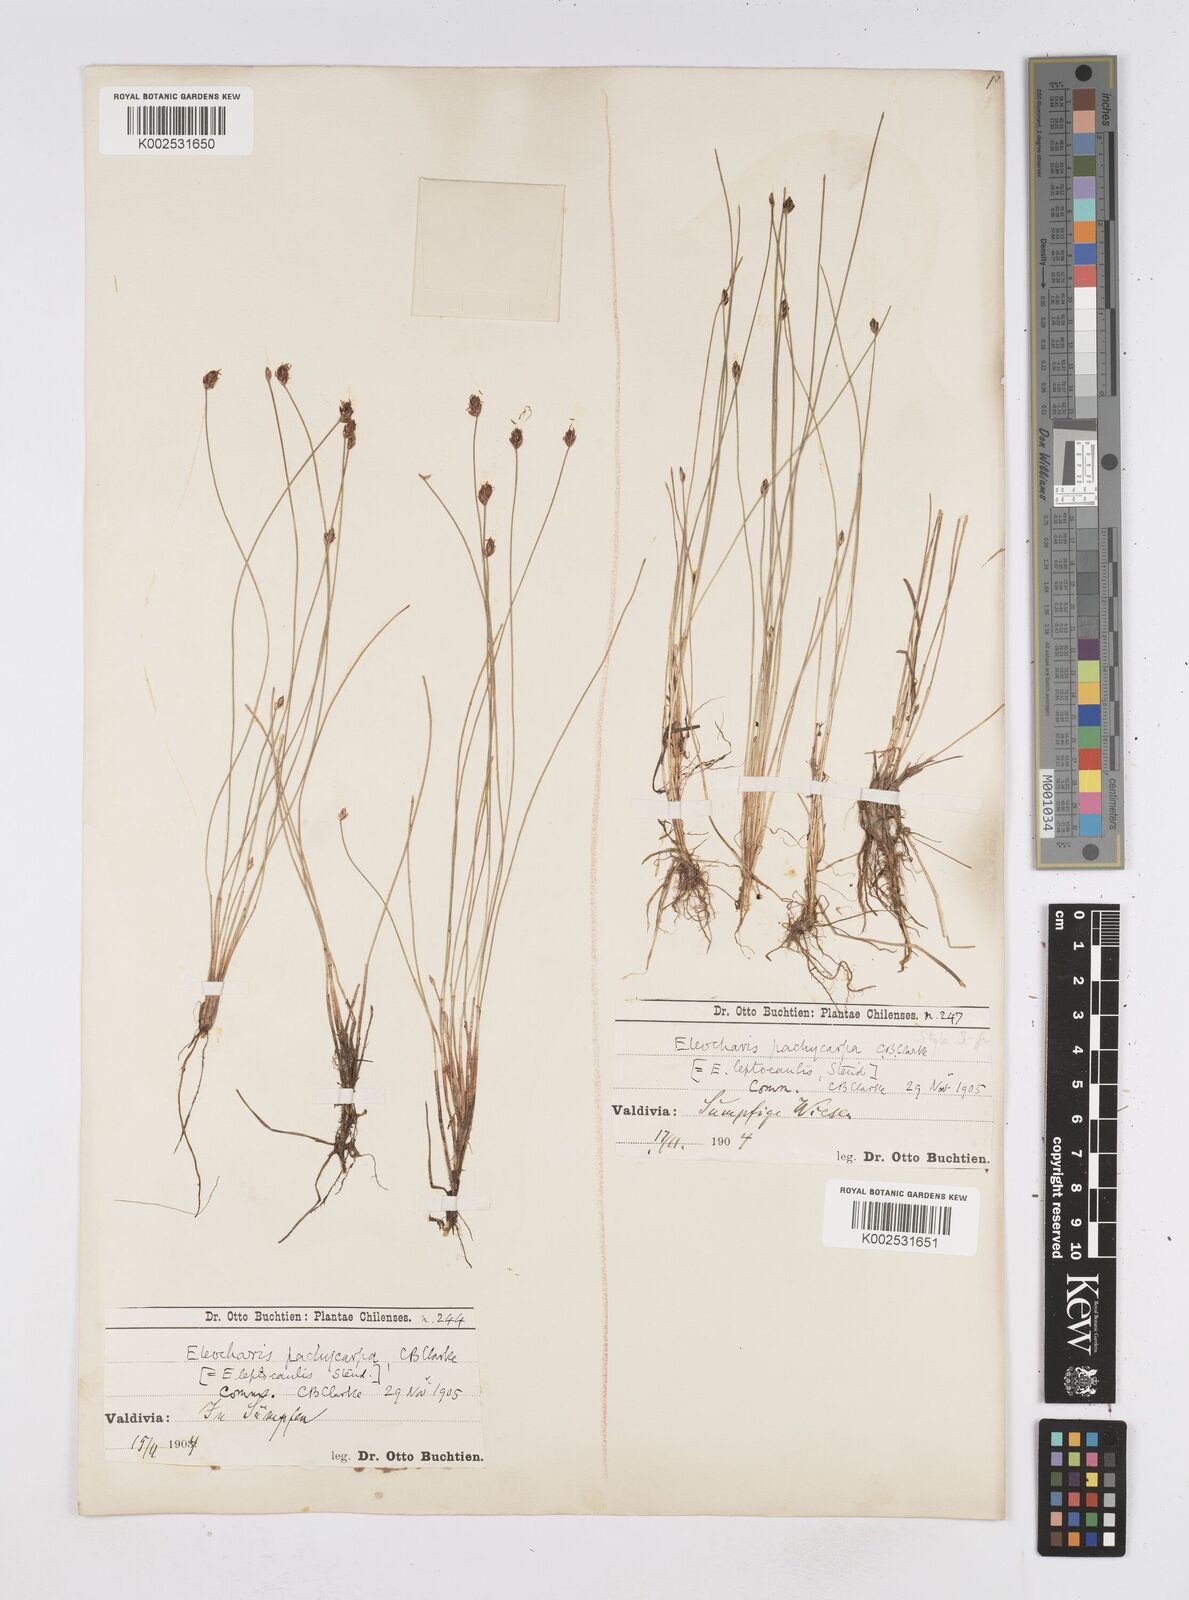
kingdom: Plantae
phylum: Tracheophyta
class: Liliopsida
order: Poales
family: Cyperaceae
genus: Eleocharis
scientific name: Eleocharis pachycarpa
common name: Black sand spikerush
